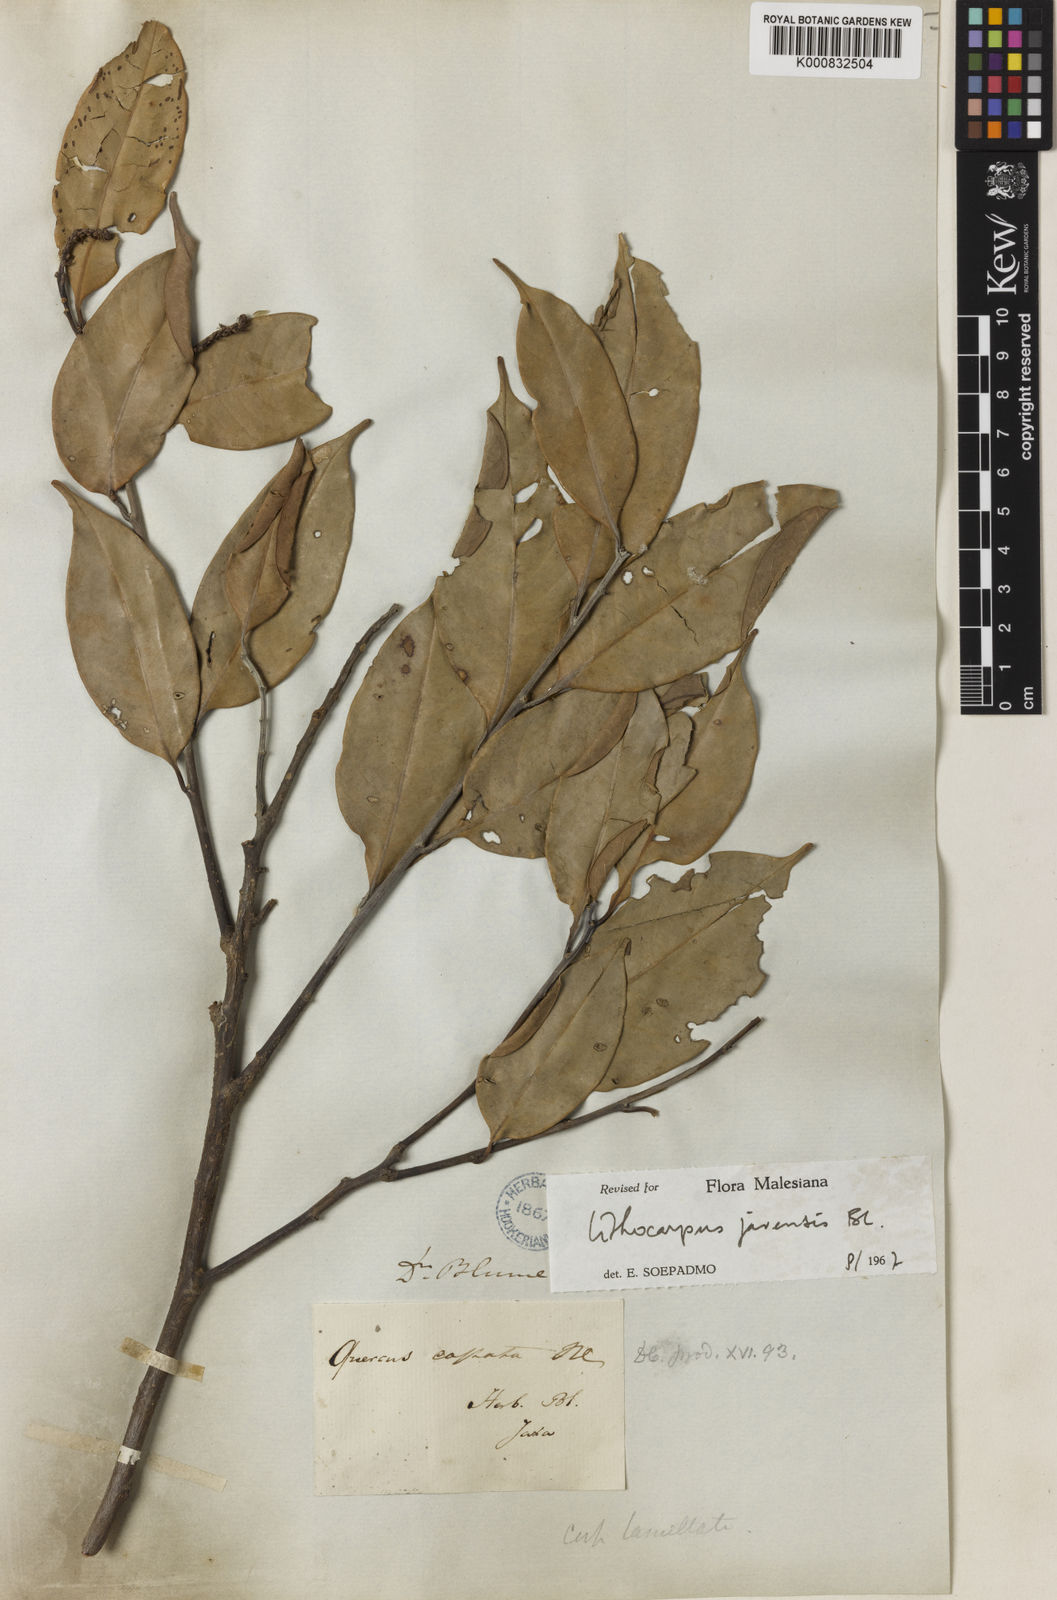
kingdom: Plantae
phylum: Tracheophyta
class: Magnoliopsida
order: Fagales
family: Fagaceae
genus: Lithocarpus
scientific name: Lithocarpus javensis
